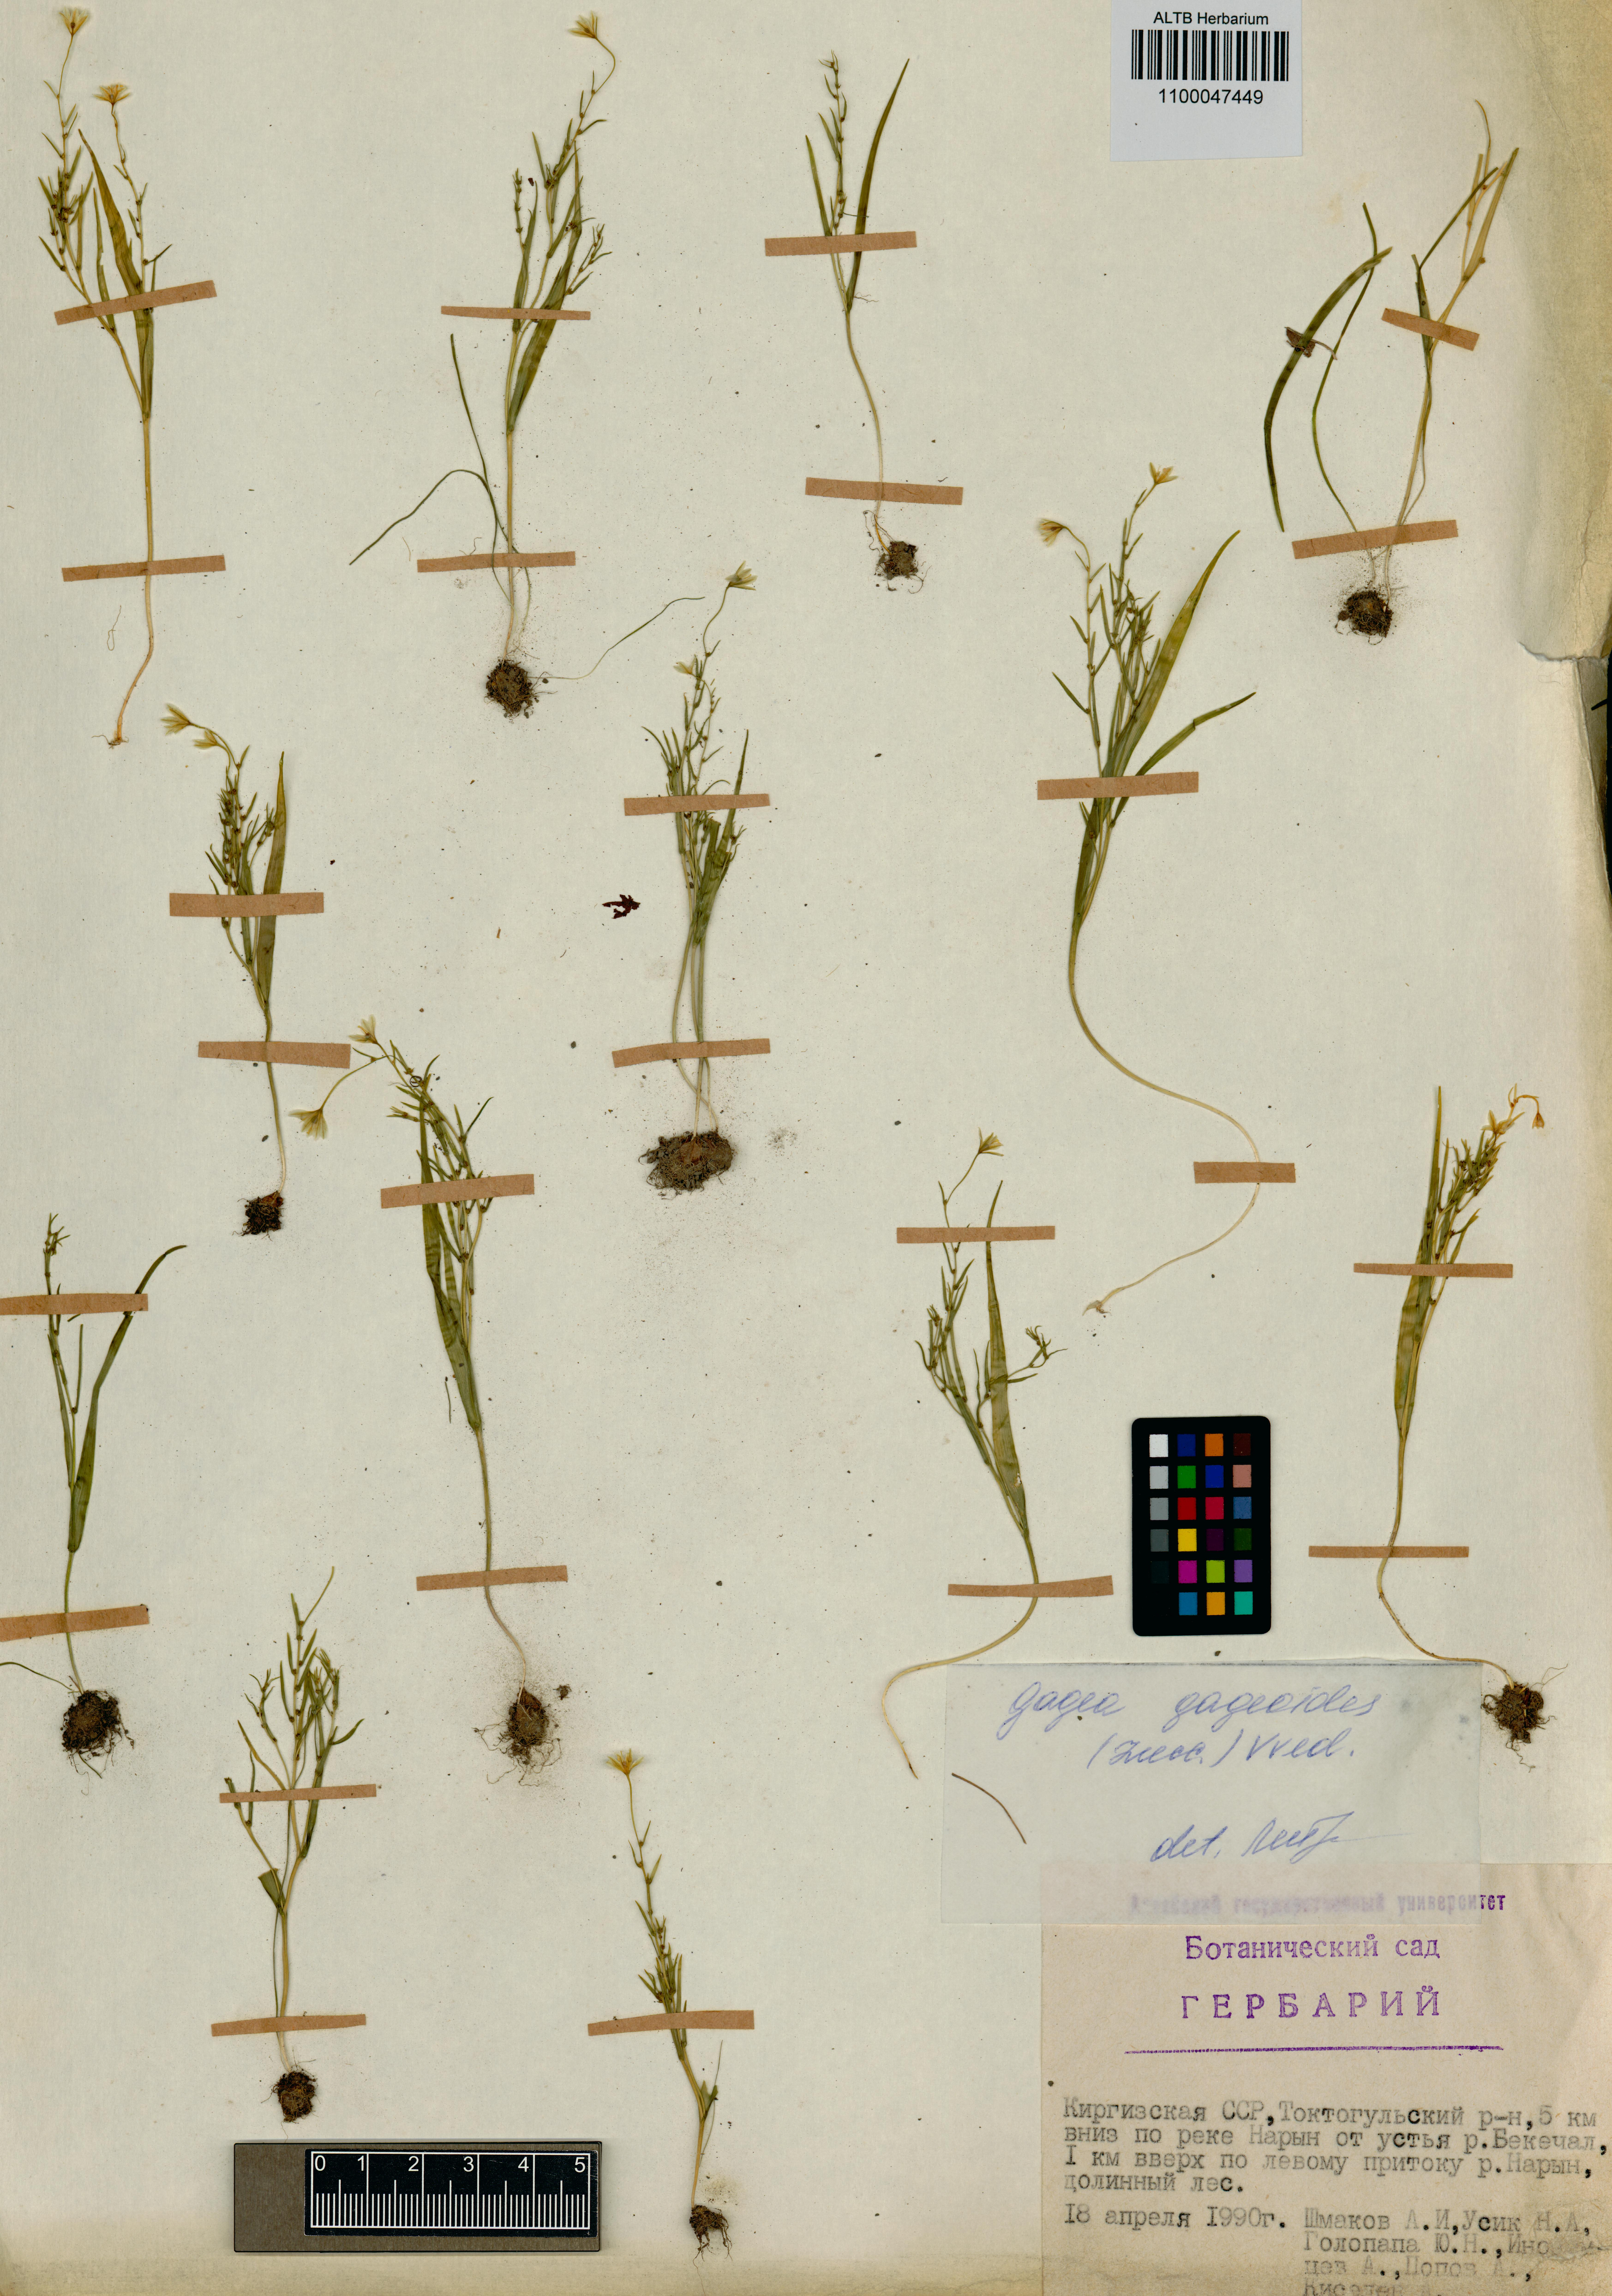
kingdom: Plantae
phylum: Tracheophyta
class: Liliopsida
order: Liliales
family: Liliaceae
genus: Gagea
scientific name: Gagea gageoides
